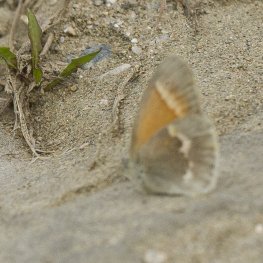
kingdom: Animalia
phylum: Arthropoda
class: Insecta
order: Lepidoptera
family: Nymphalidae
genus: Coenonympha
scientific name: Coenonympha tullia
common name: Large Heath
